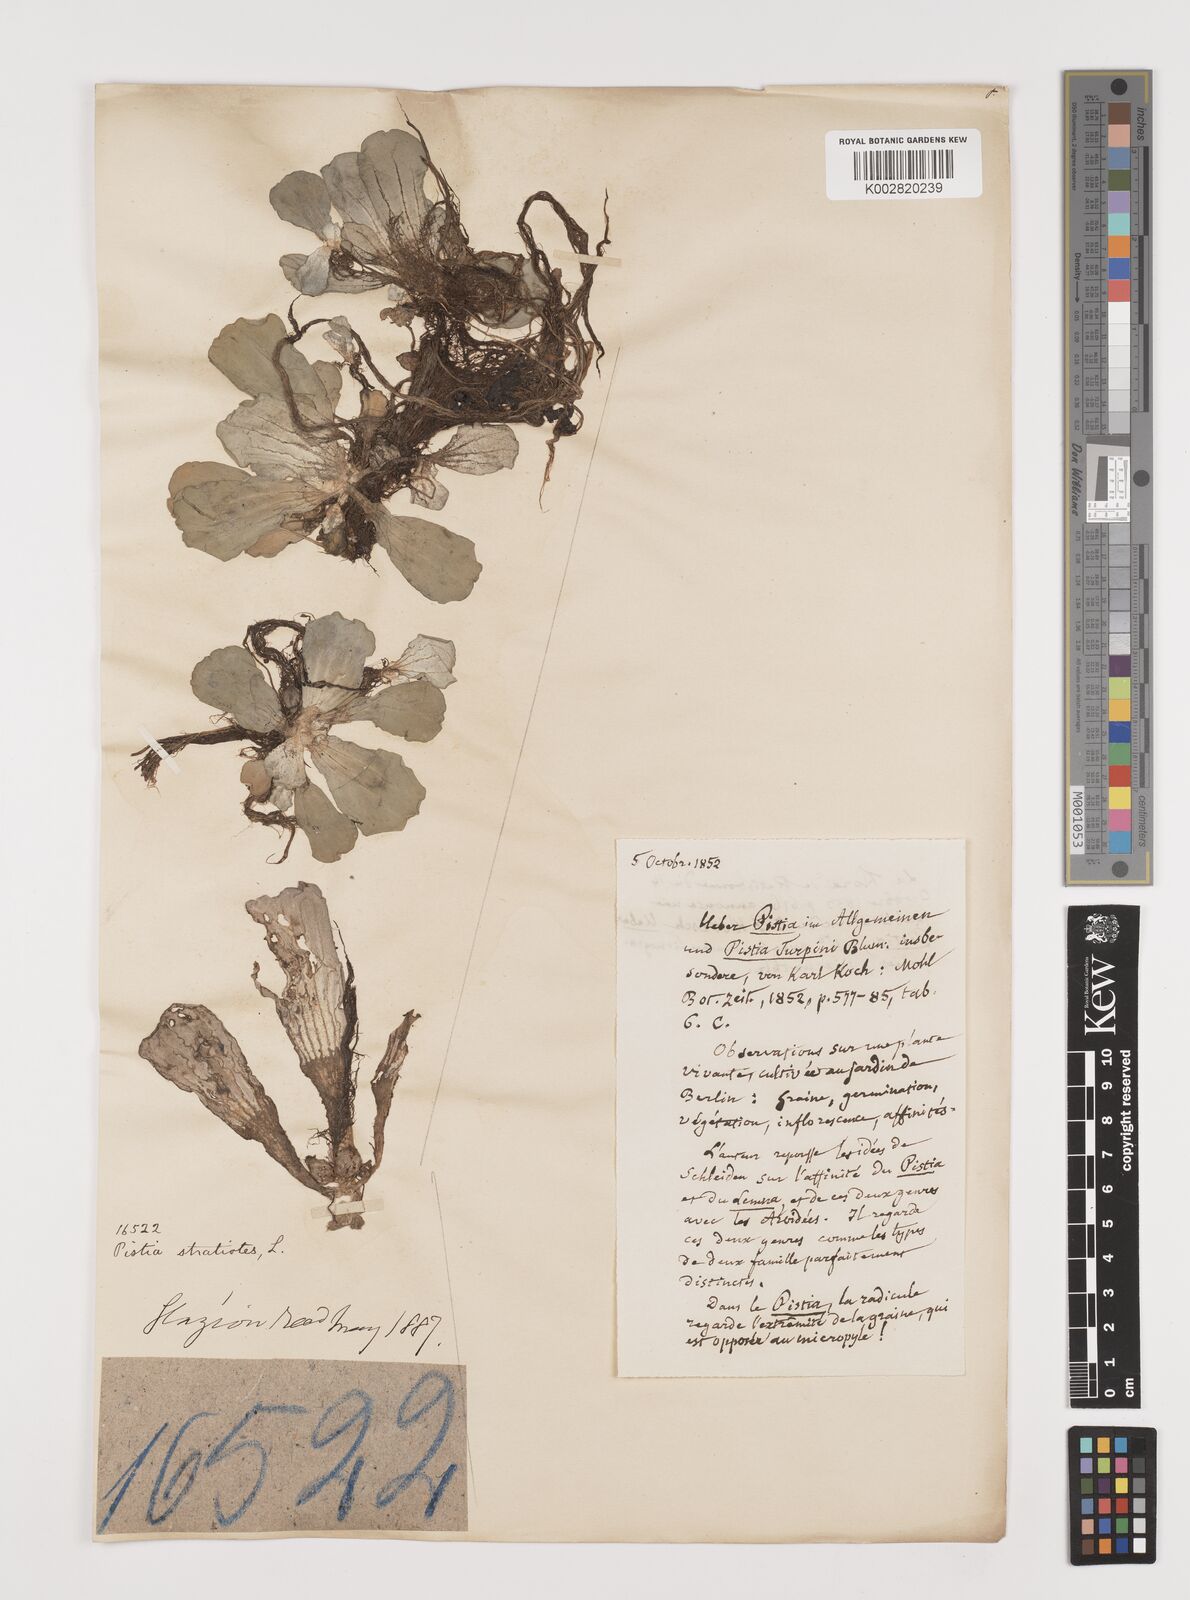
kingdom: Plantae
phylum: Tracheophyta
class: Liliopsida
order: Alismatales
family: Araceae
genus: Pistia
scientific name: Pistia stratiotes
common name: Water lettuce
